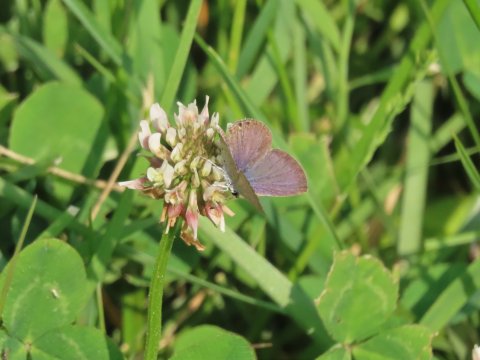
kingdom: Animalia
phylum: Arthropoda
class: Insecta
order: Lepidoptera
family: Lycaenidae
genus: Elkalyce
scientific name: Elkalyce comyntas
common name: Eastern Tailed-Blue
